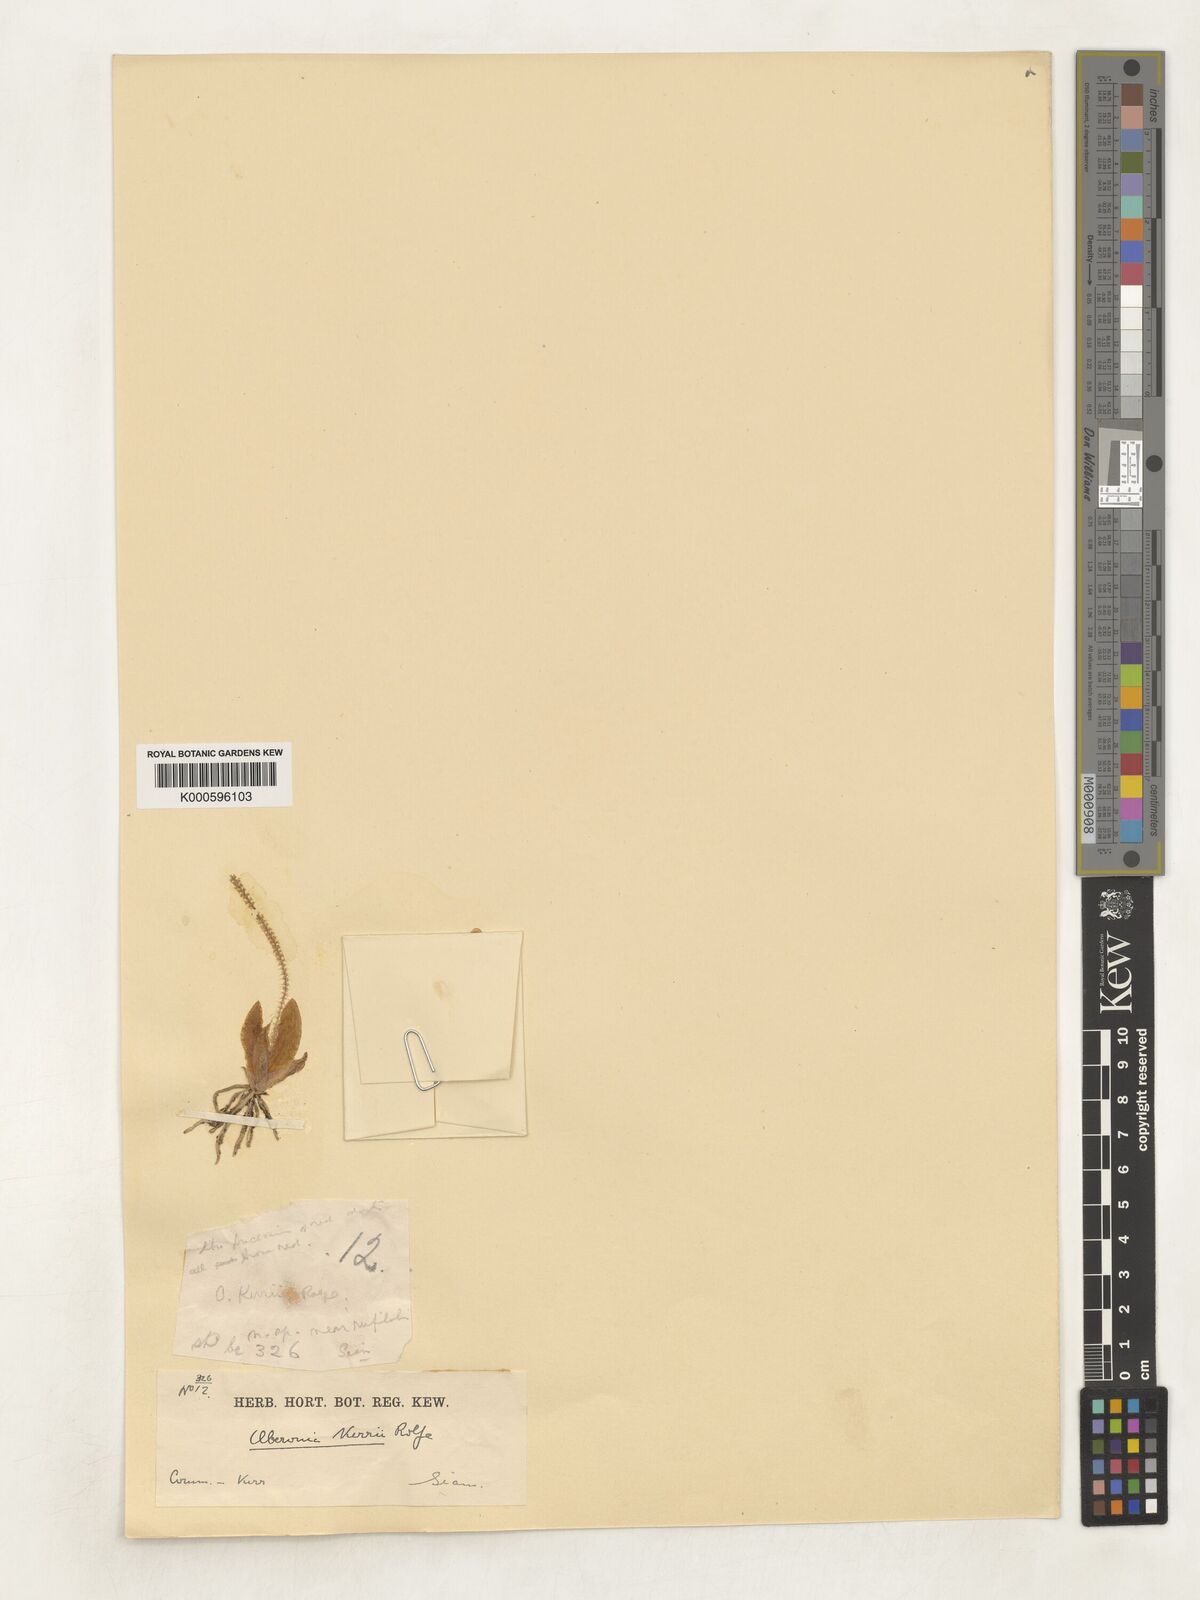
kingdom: Plantae
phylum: Tracheophyta
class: Liliopsida
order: Asparagales
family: Orchidaceae
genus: Oberonia
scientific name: Oberonia rufilabris
